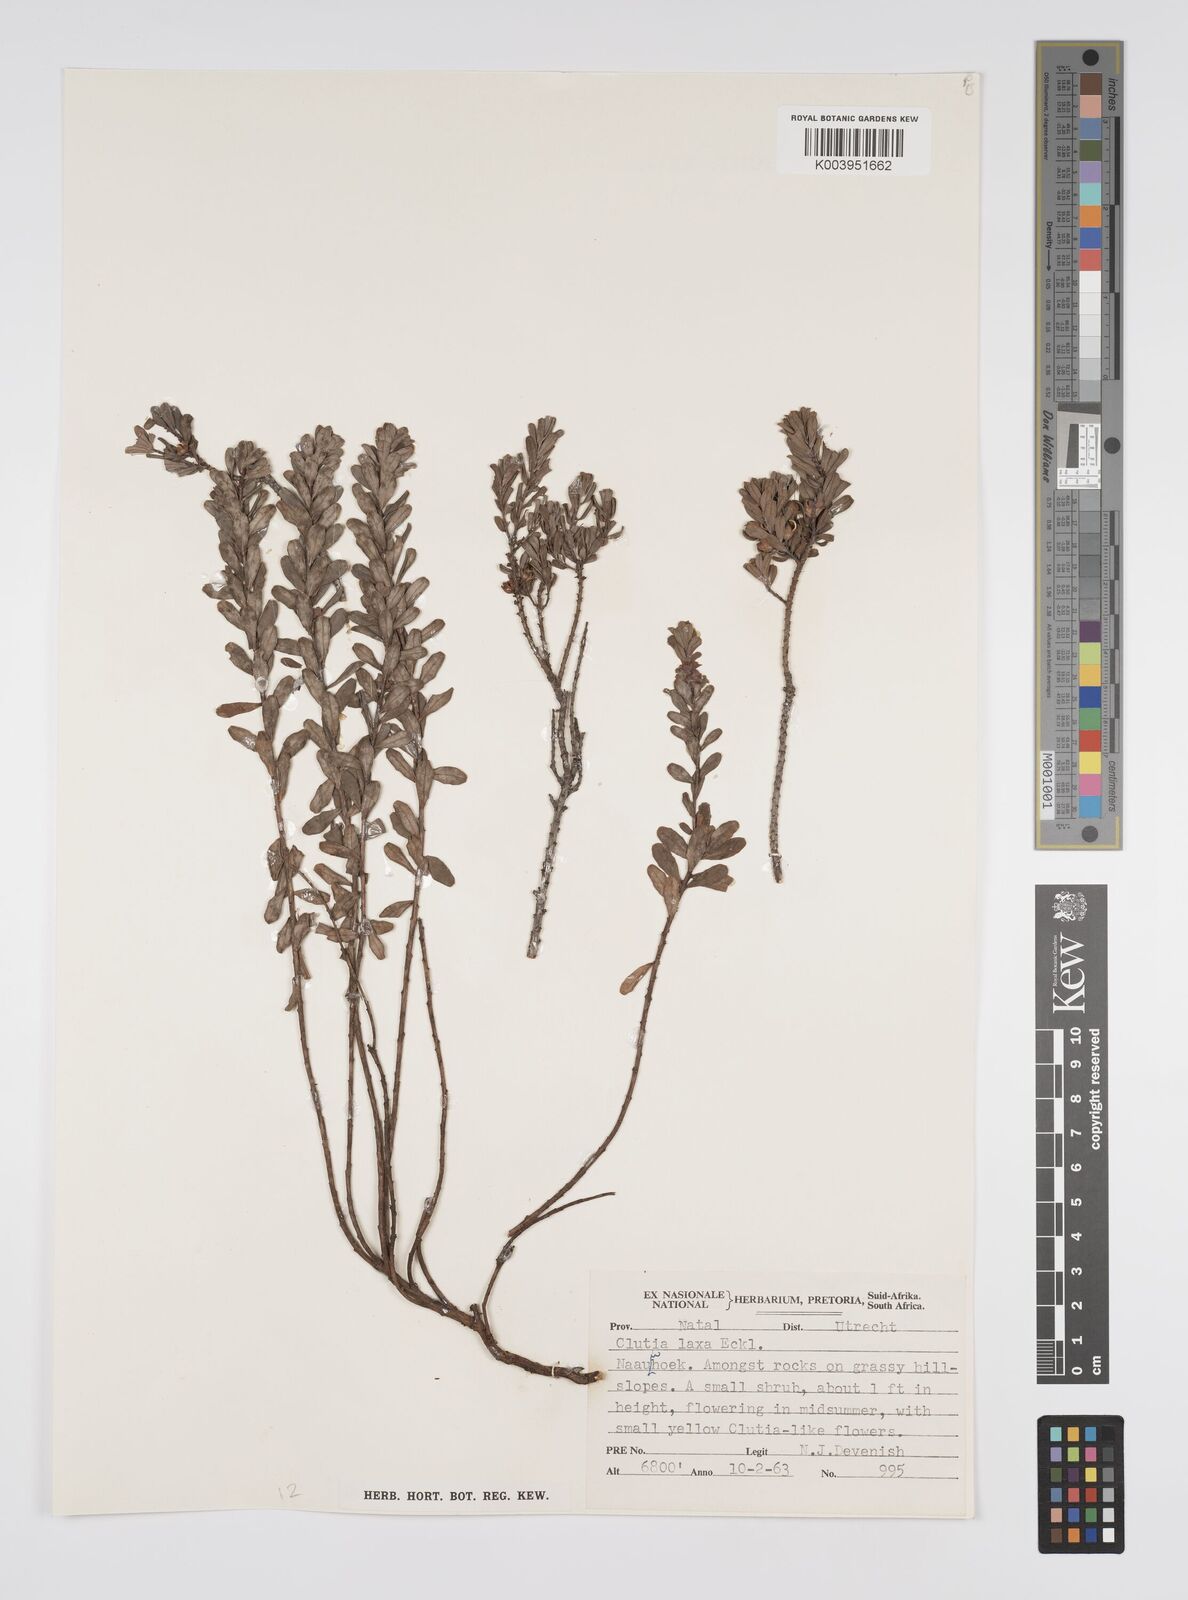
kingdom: Plantae
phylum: Tracheophyta
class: Magnoliopsida
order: Malpighiales
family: Peraceae
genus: Clutia
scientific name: Clutia laxa
